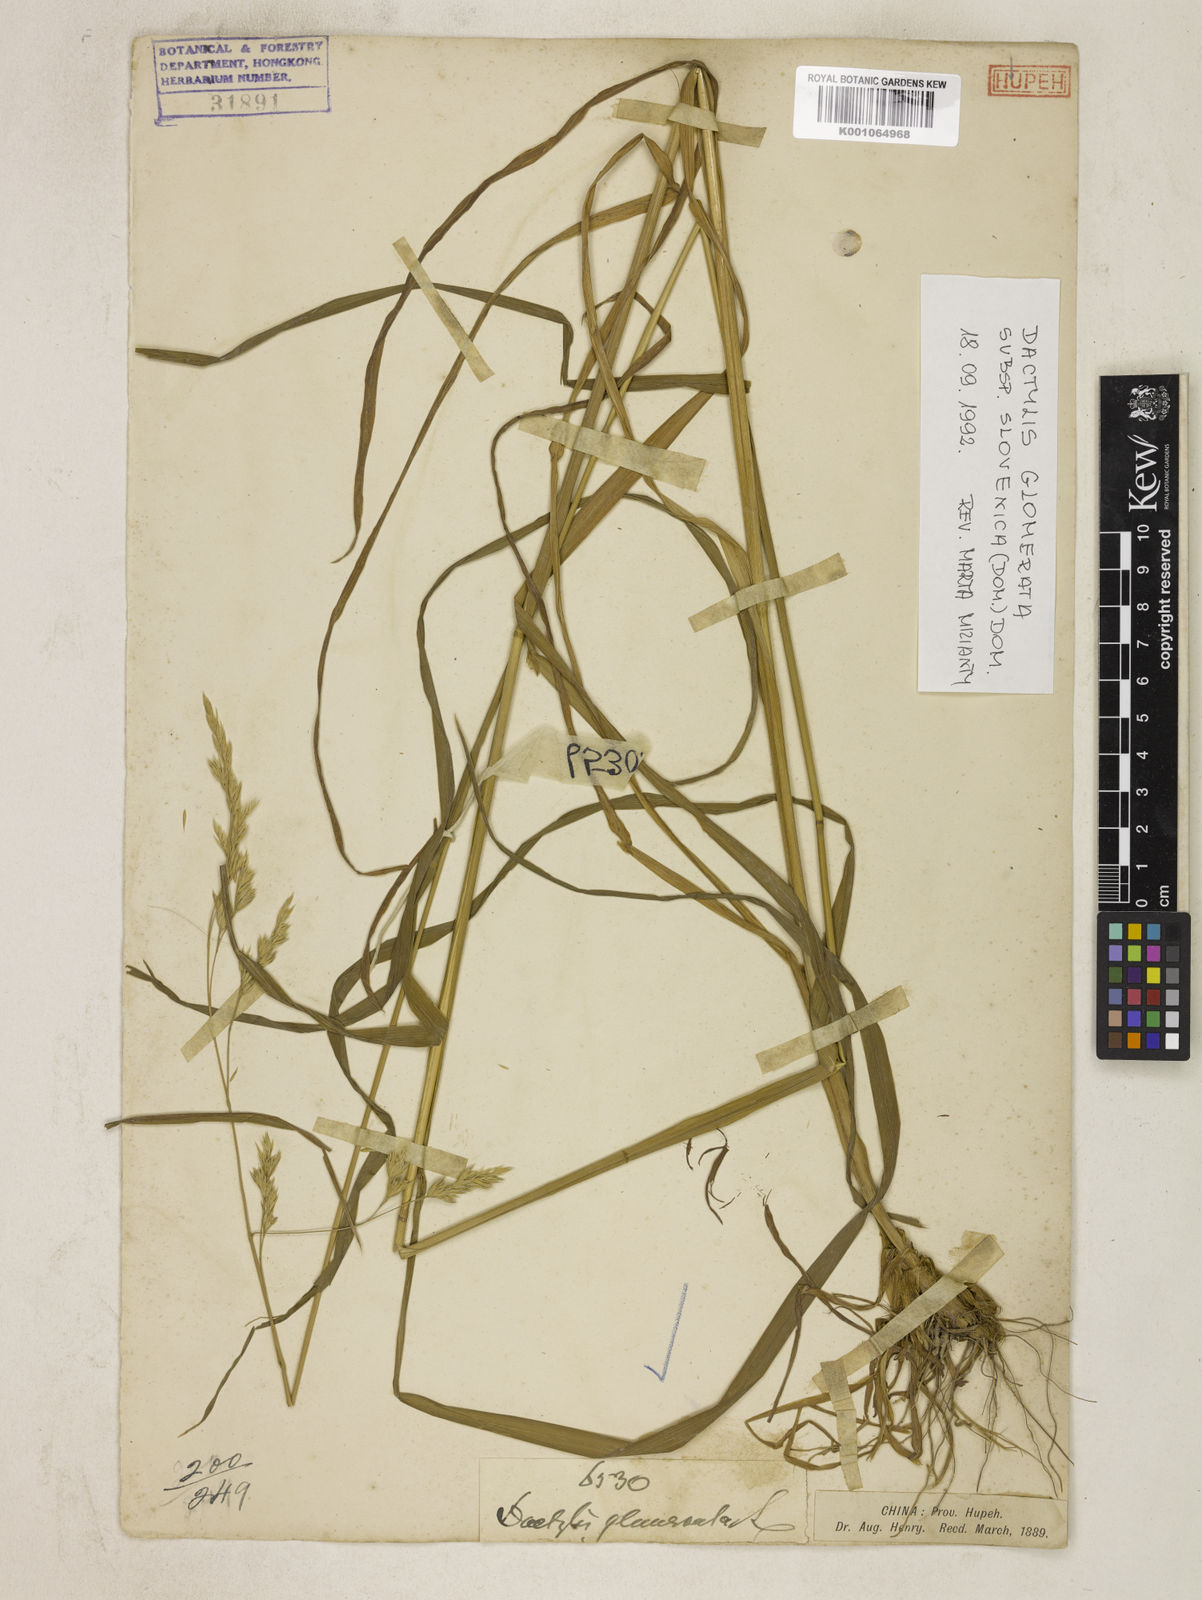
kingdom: Plantae
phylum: Tracheophyta
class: Liliopsida
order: Poales
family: Poaceae
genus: Dactylis
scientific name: Dactylis glomerata
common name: Orchardgrass
